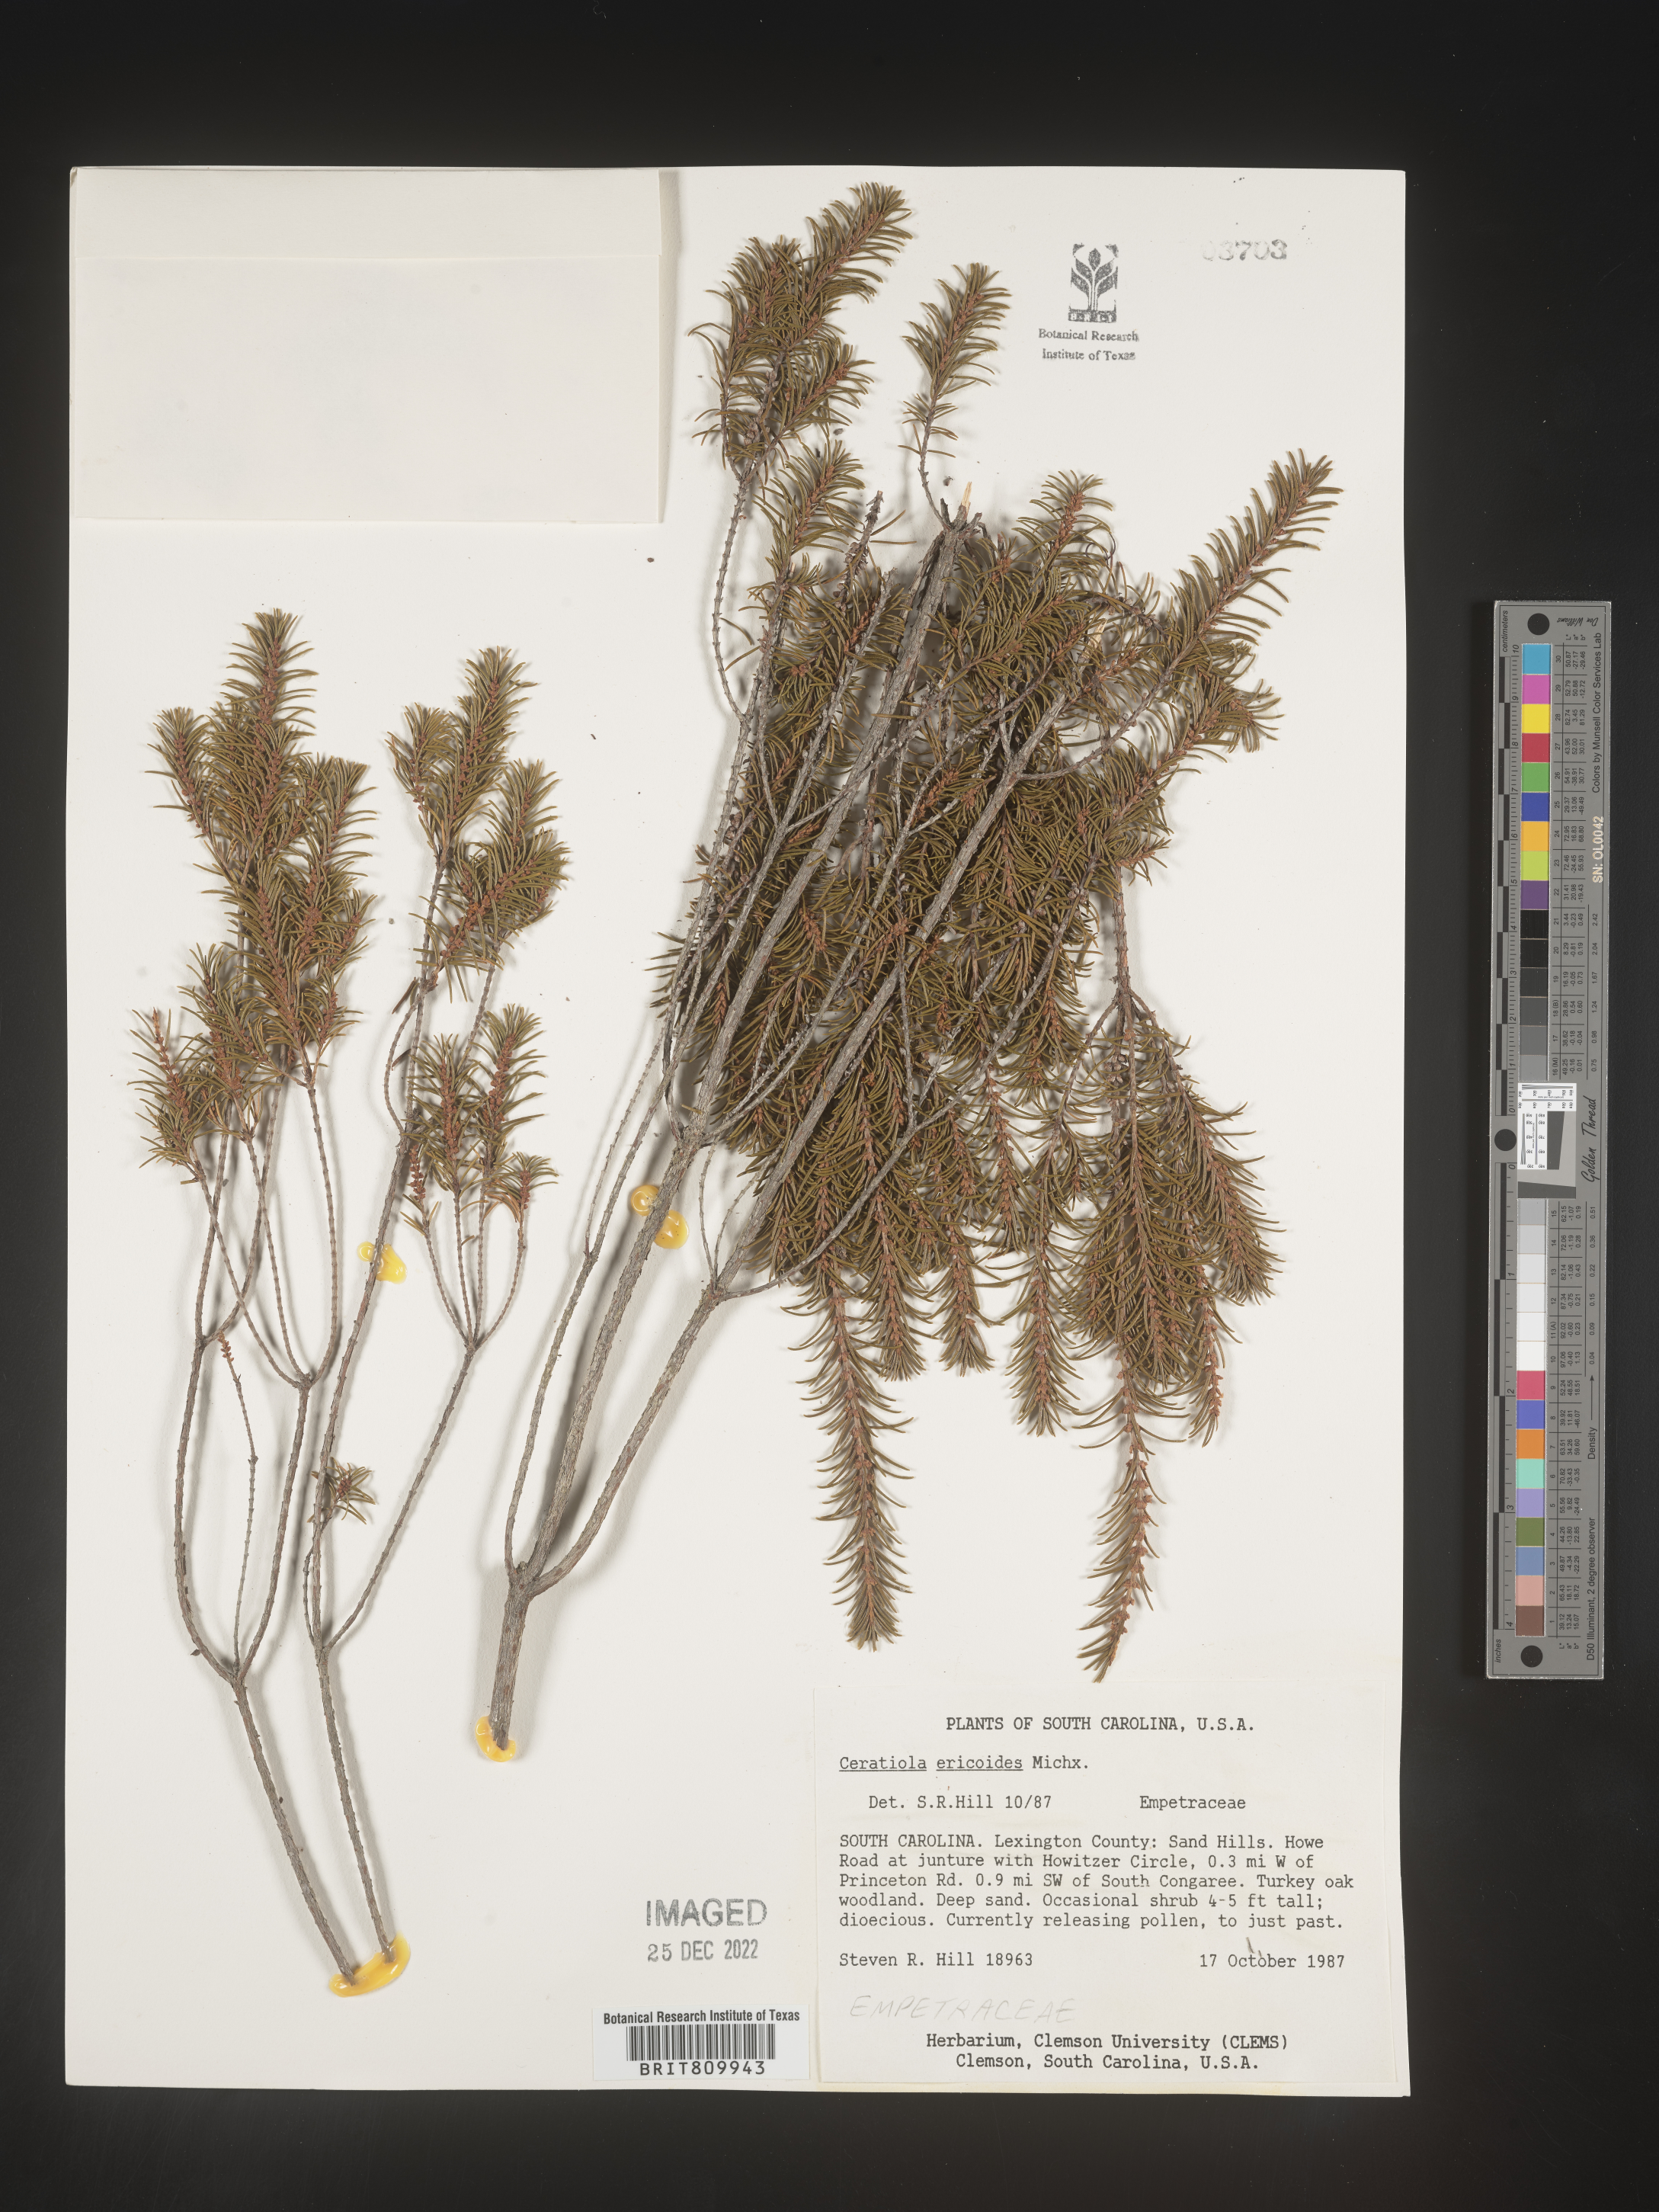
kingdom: Plantae
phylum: Tracheophyta
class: Magnoliopsida
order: Ericales
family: Ericaceae
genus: Ceratiola
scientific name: Ceratiola ericoides
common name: Sandhill-rosemary
